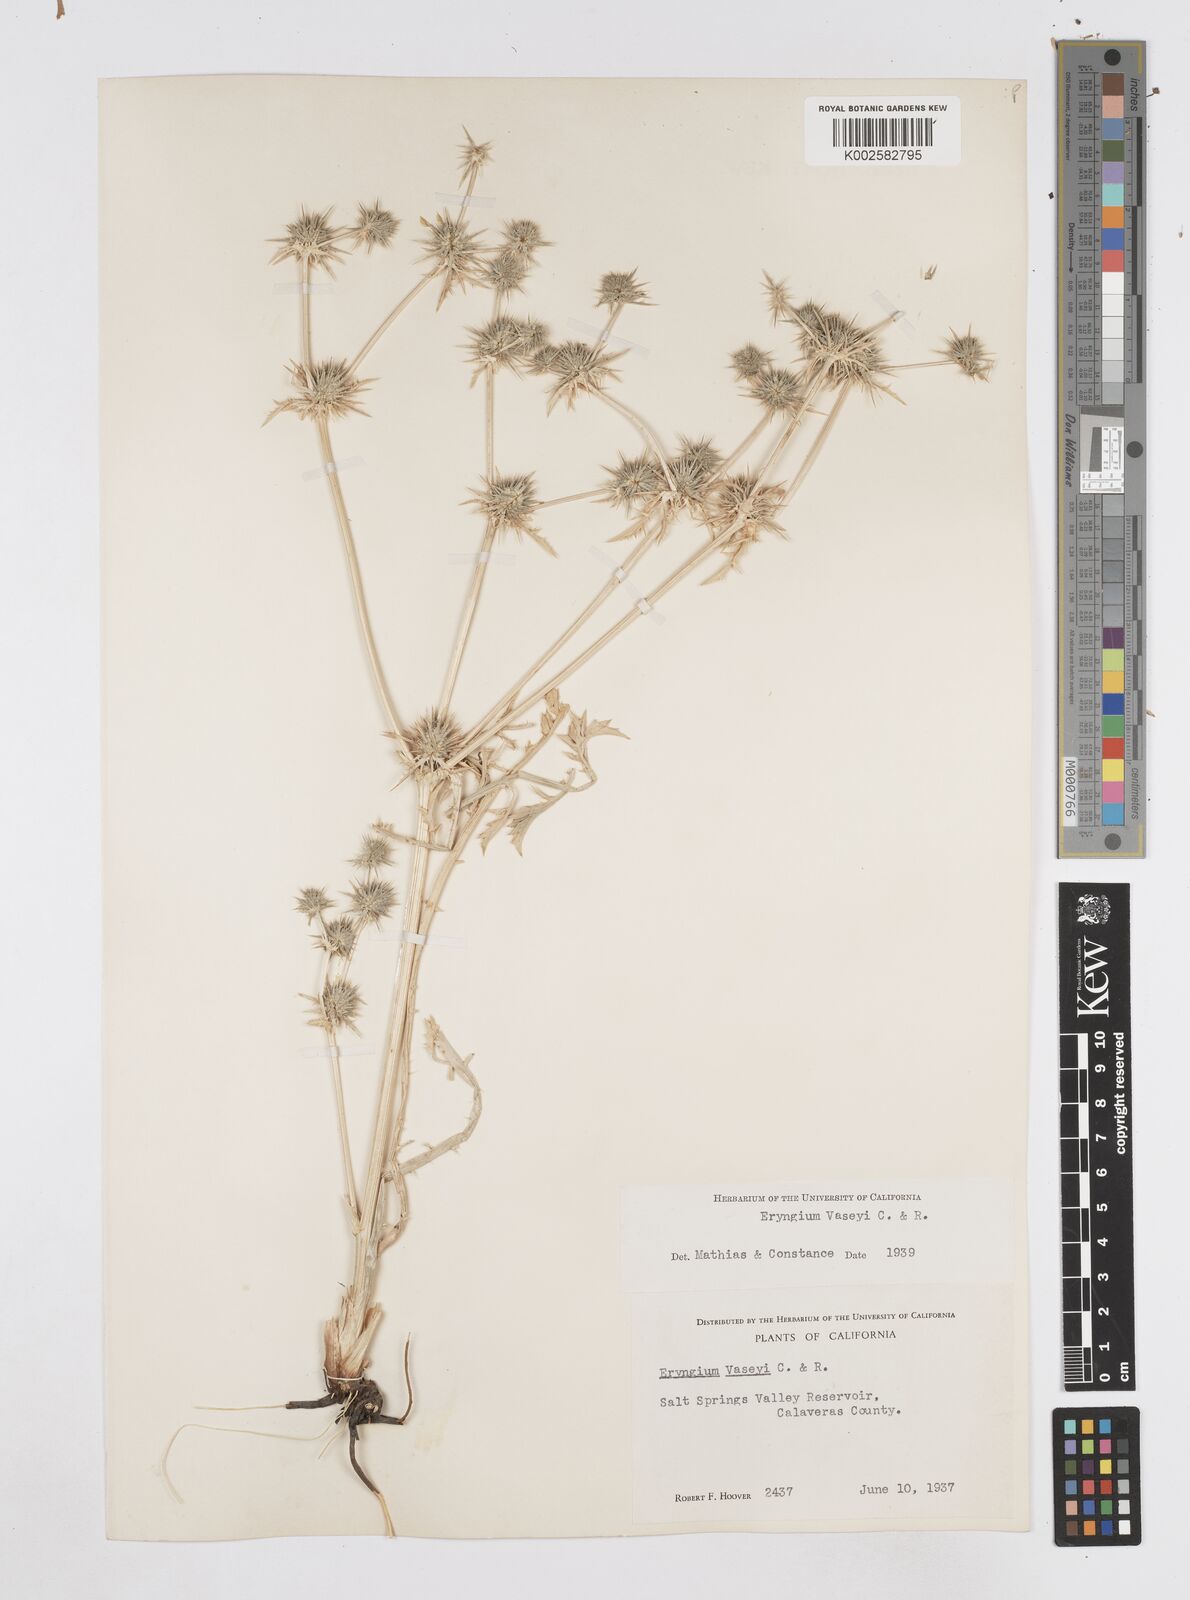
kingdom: Plantae
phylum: Tracheophyta
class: Magnoliopsida
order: Apiales
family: Apiaceae
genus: Eryngium
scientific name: Eryngium vaseyi
